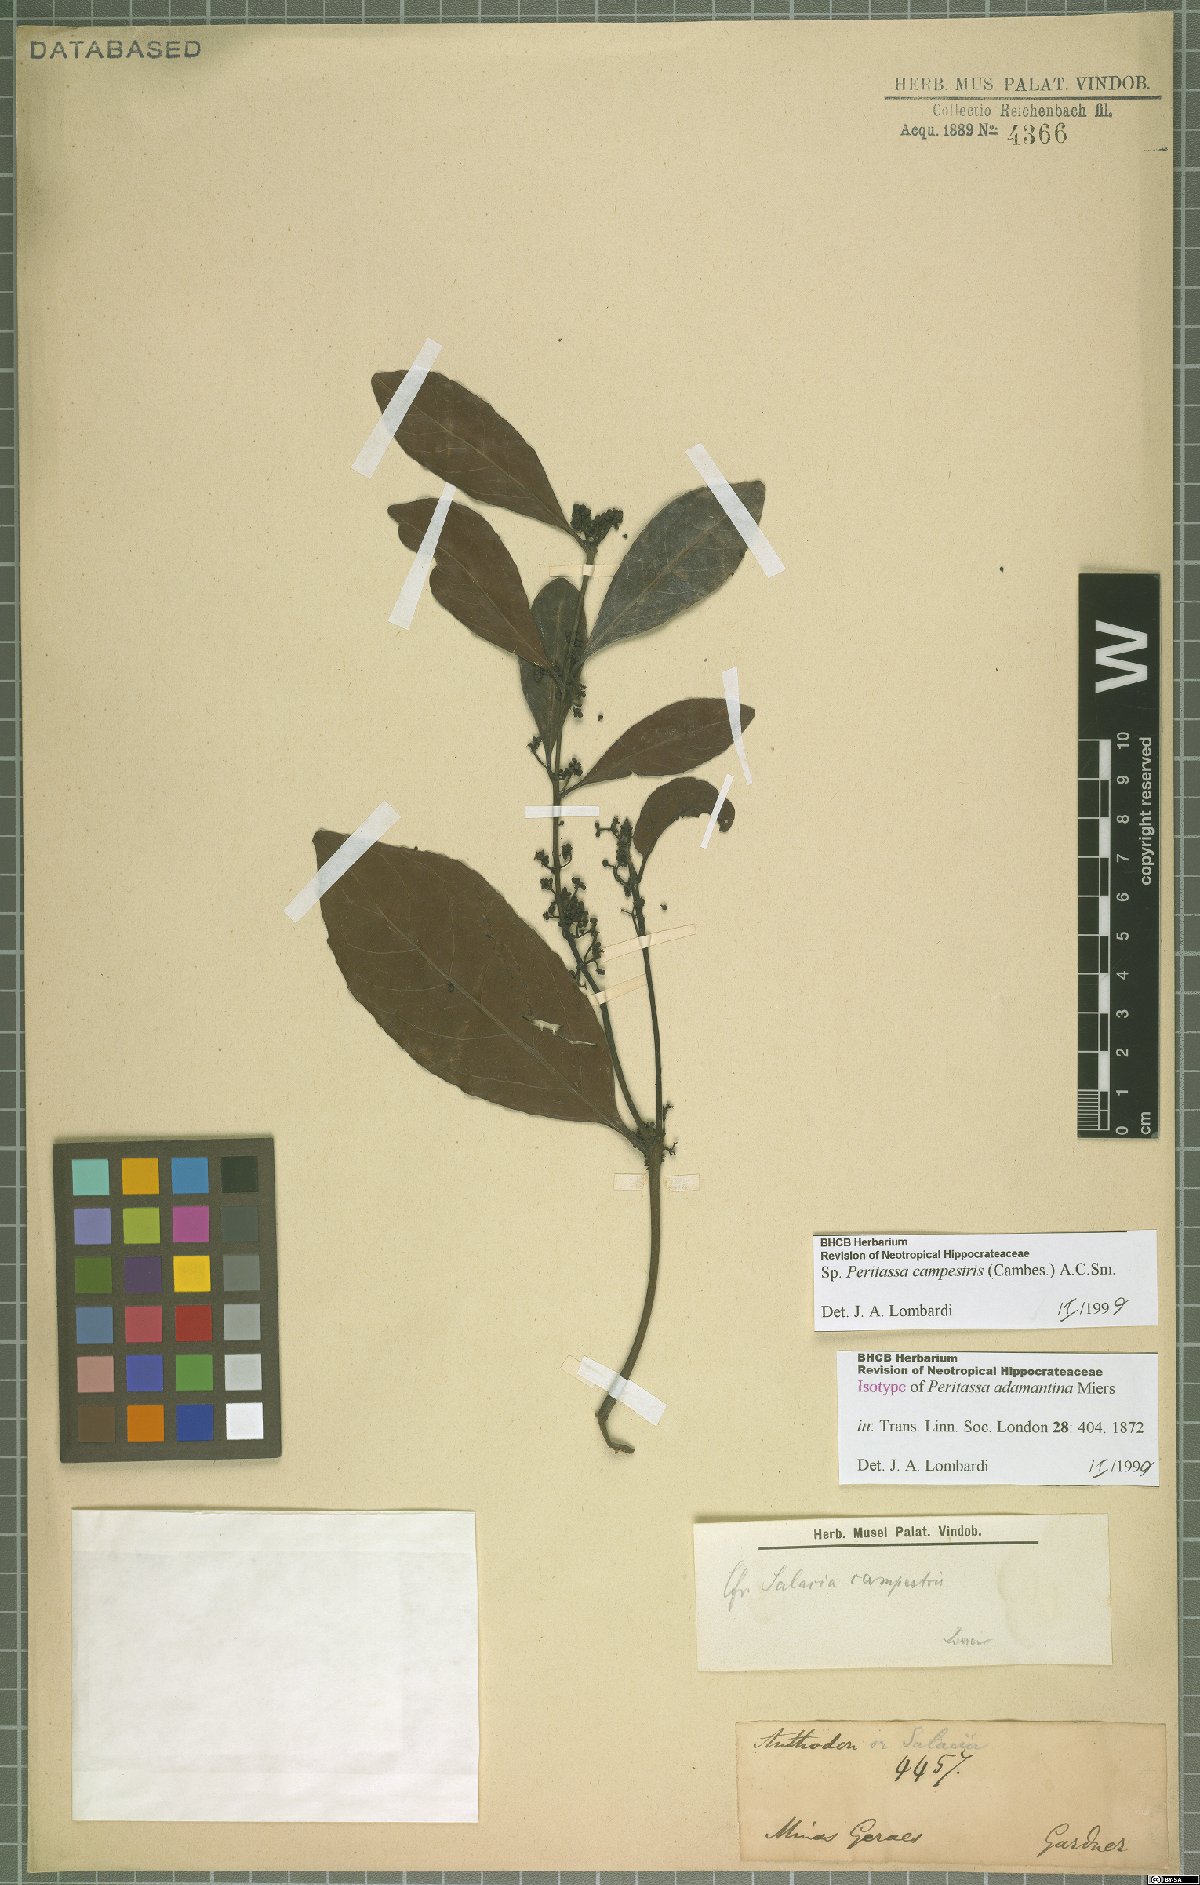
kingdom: Plantae
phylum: Tracheophyta
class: Magnoliopsida
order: Celastrales
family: Celastraceae
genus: Peritassa
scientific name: Peritassa campestris
